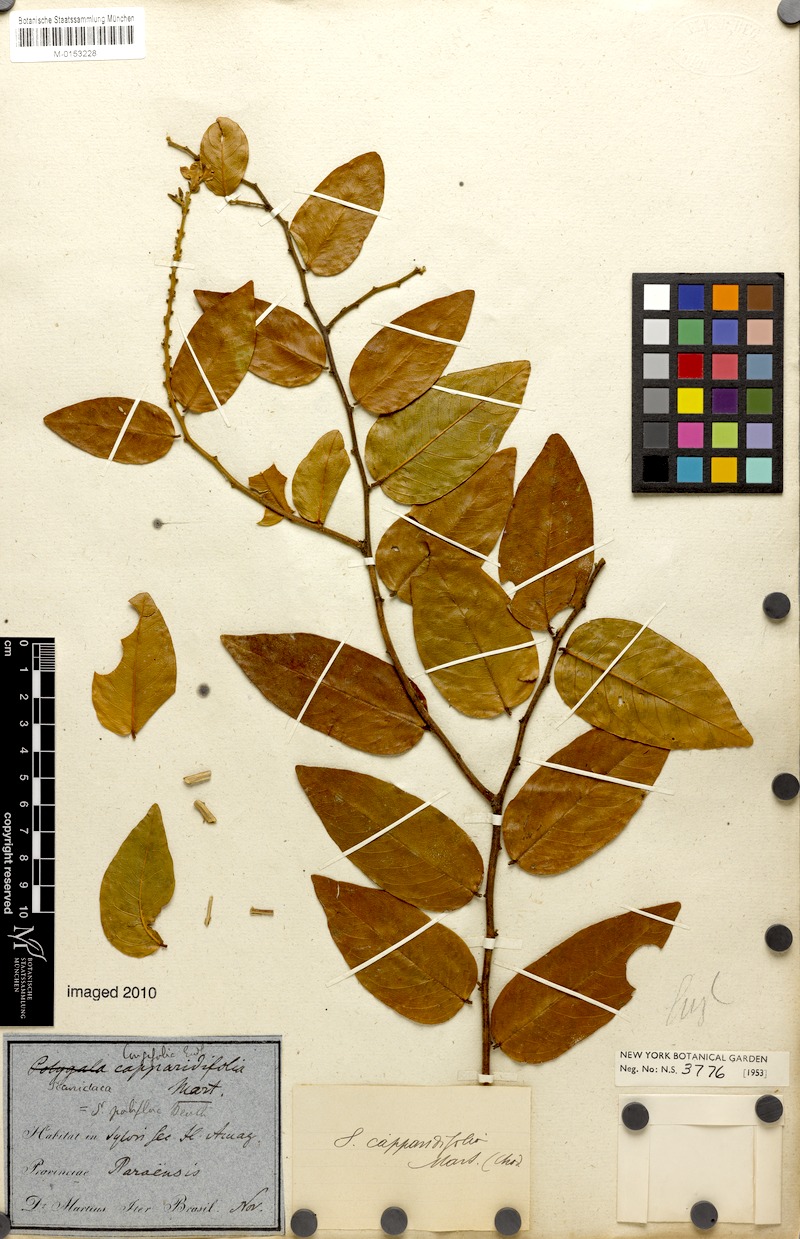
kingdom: Plantae
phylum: Tracheophyta
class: Magnoliopsida
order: Fabales
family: Polygalaceae
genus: Securidaca
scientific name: Securidaca longifolia
